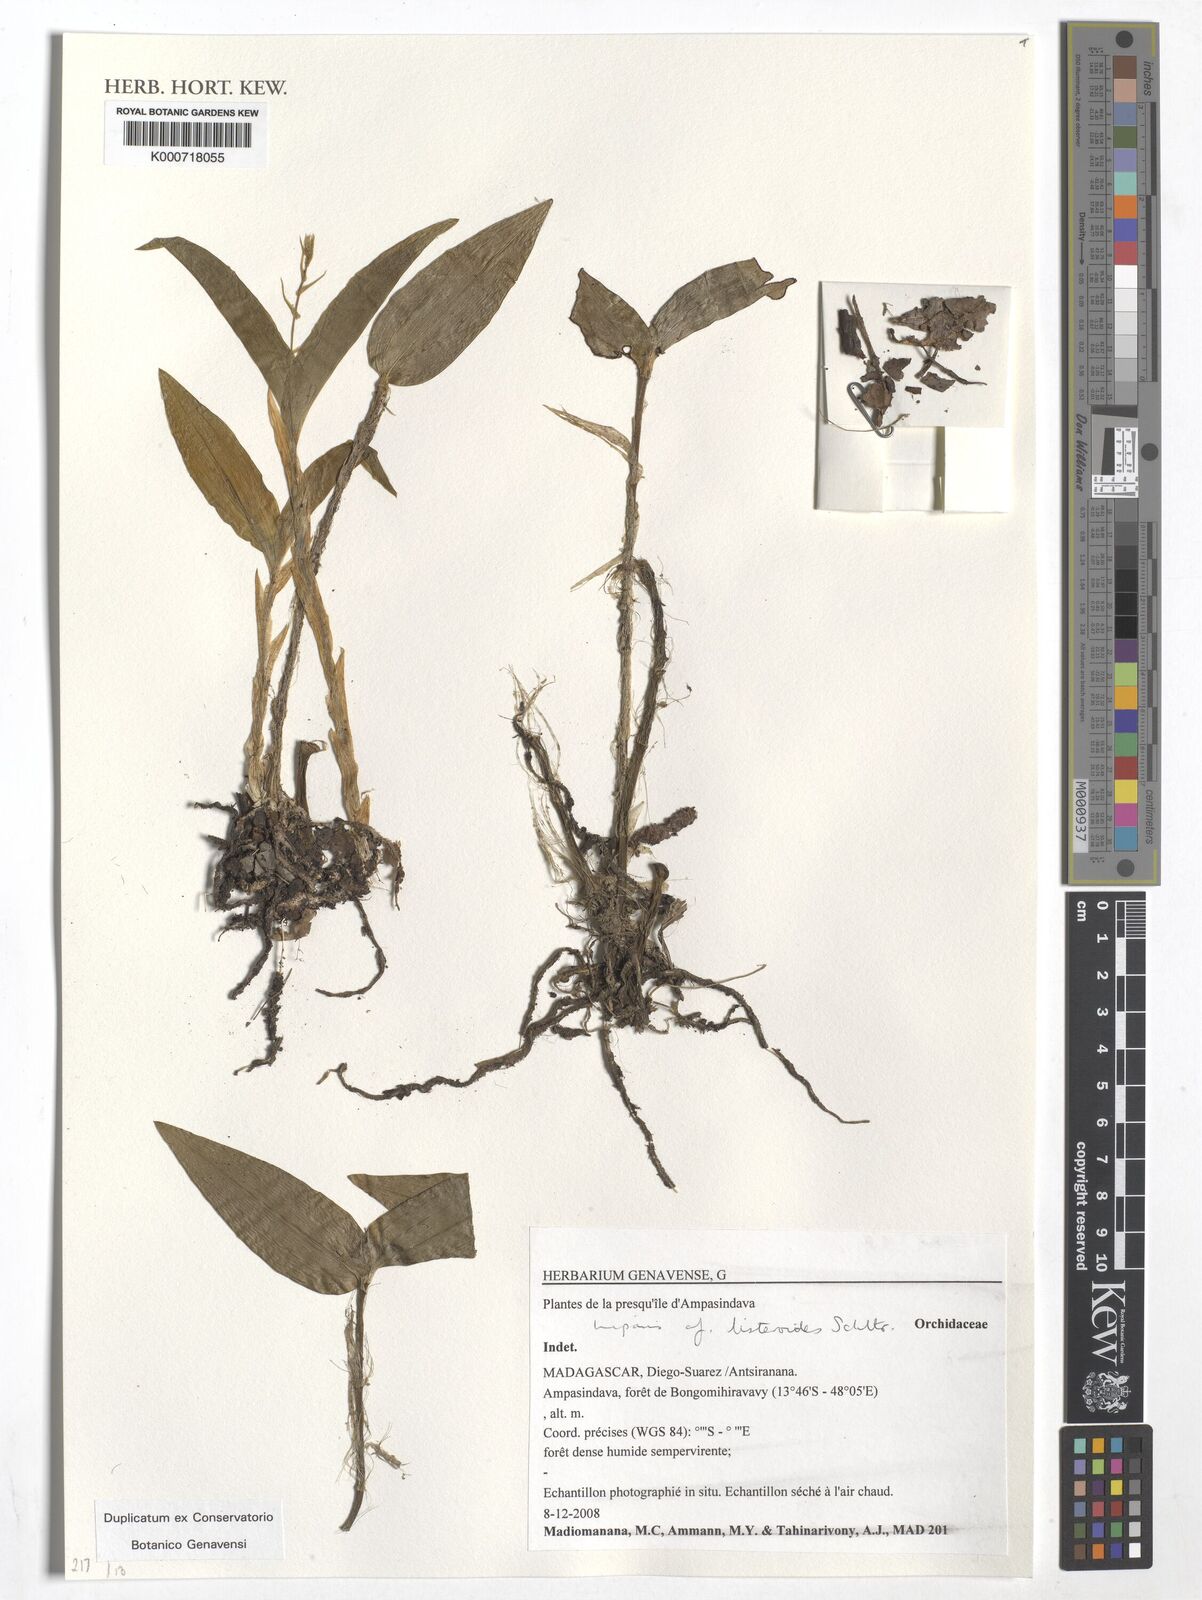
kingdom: Plantae
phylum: Tracheophyta
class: Liliopsida
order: Asparagales
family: Orchidaceae
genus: Liparis
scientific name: Liparis listeroides
